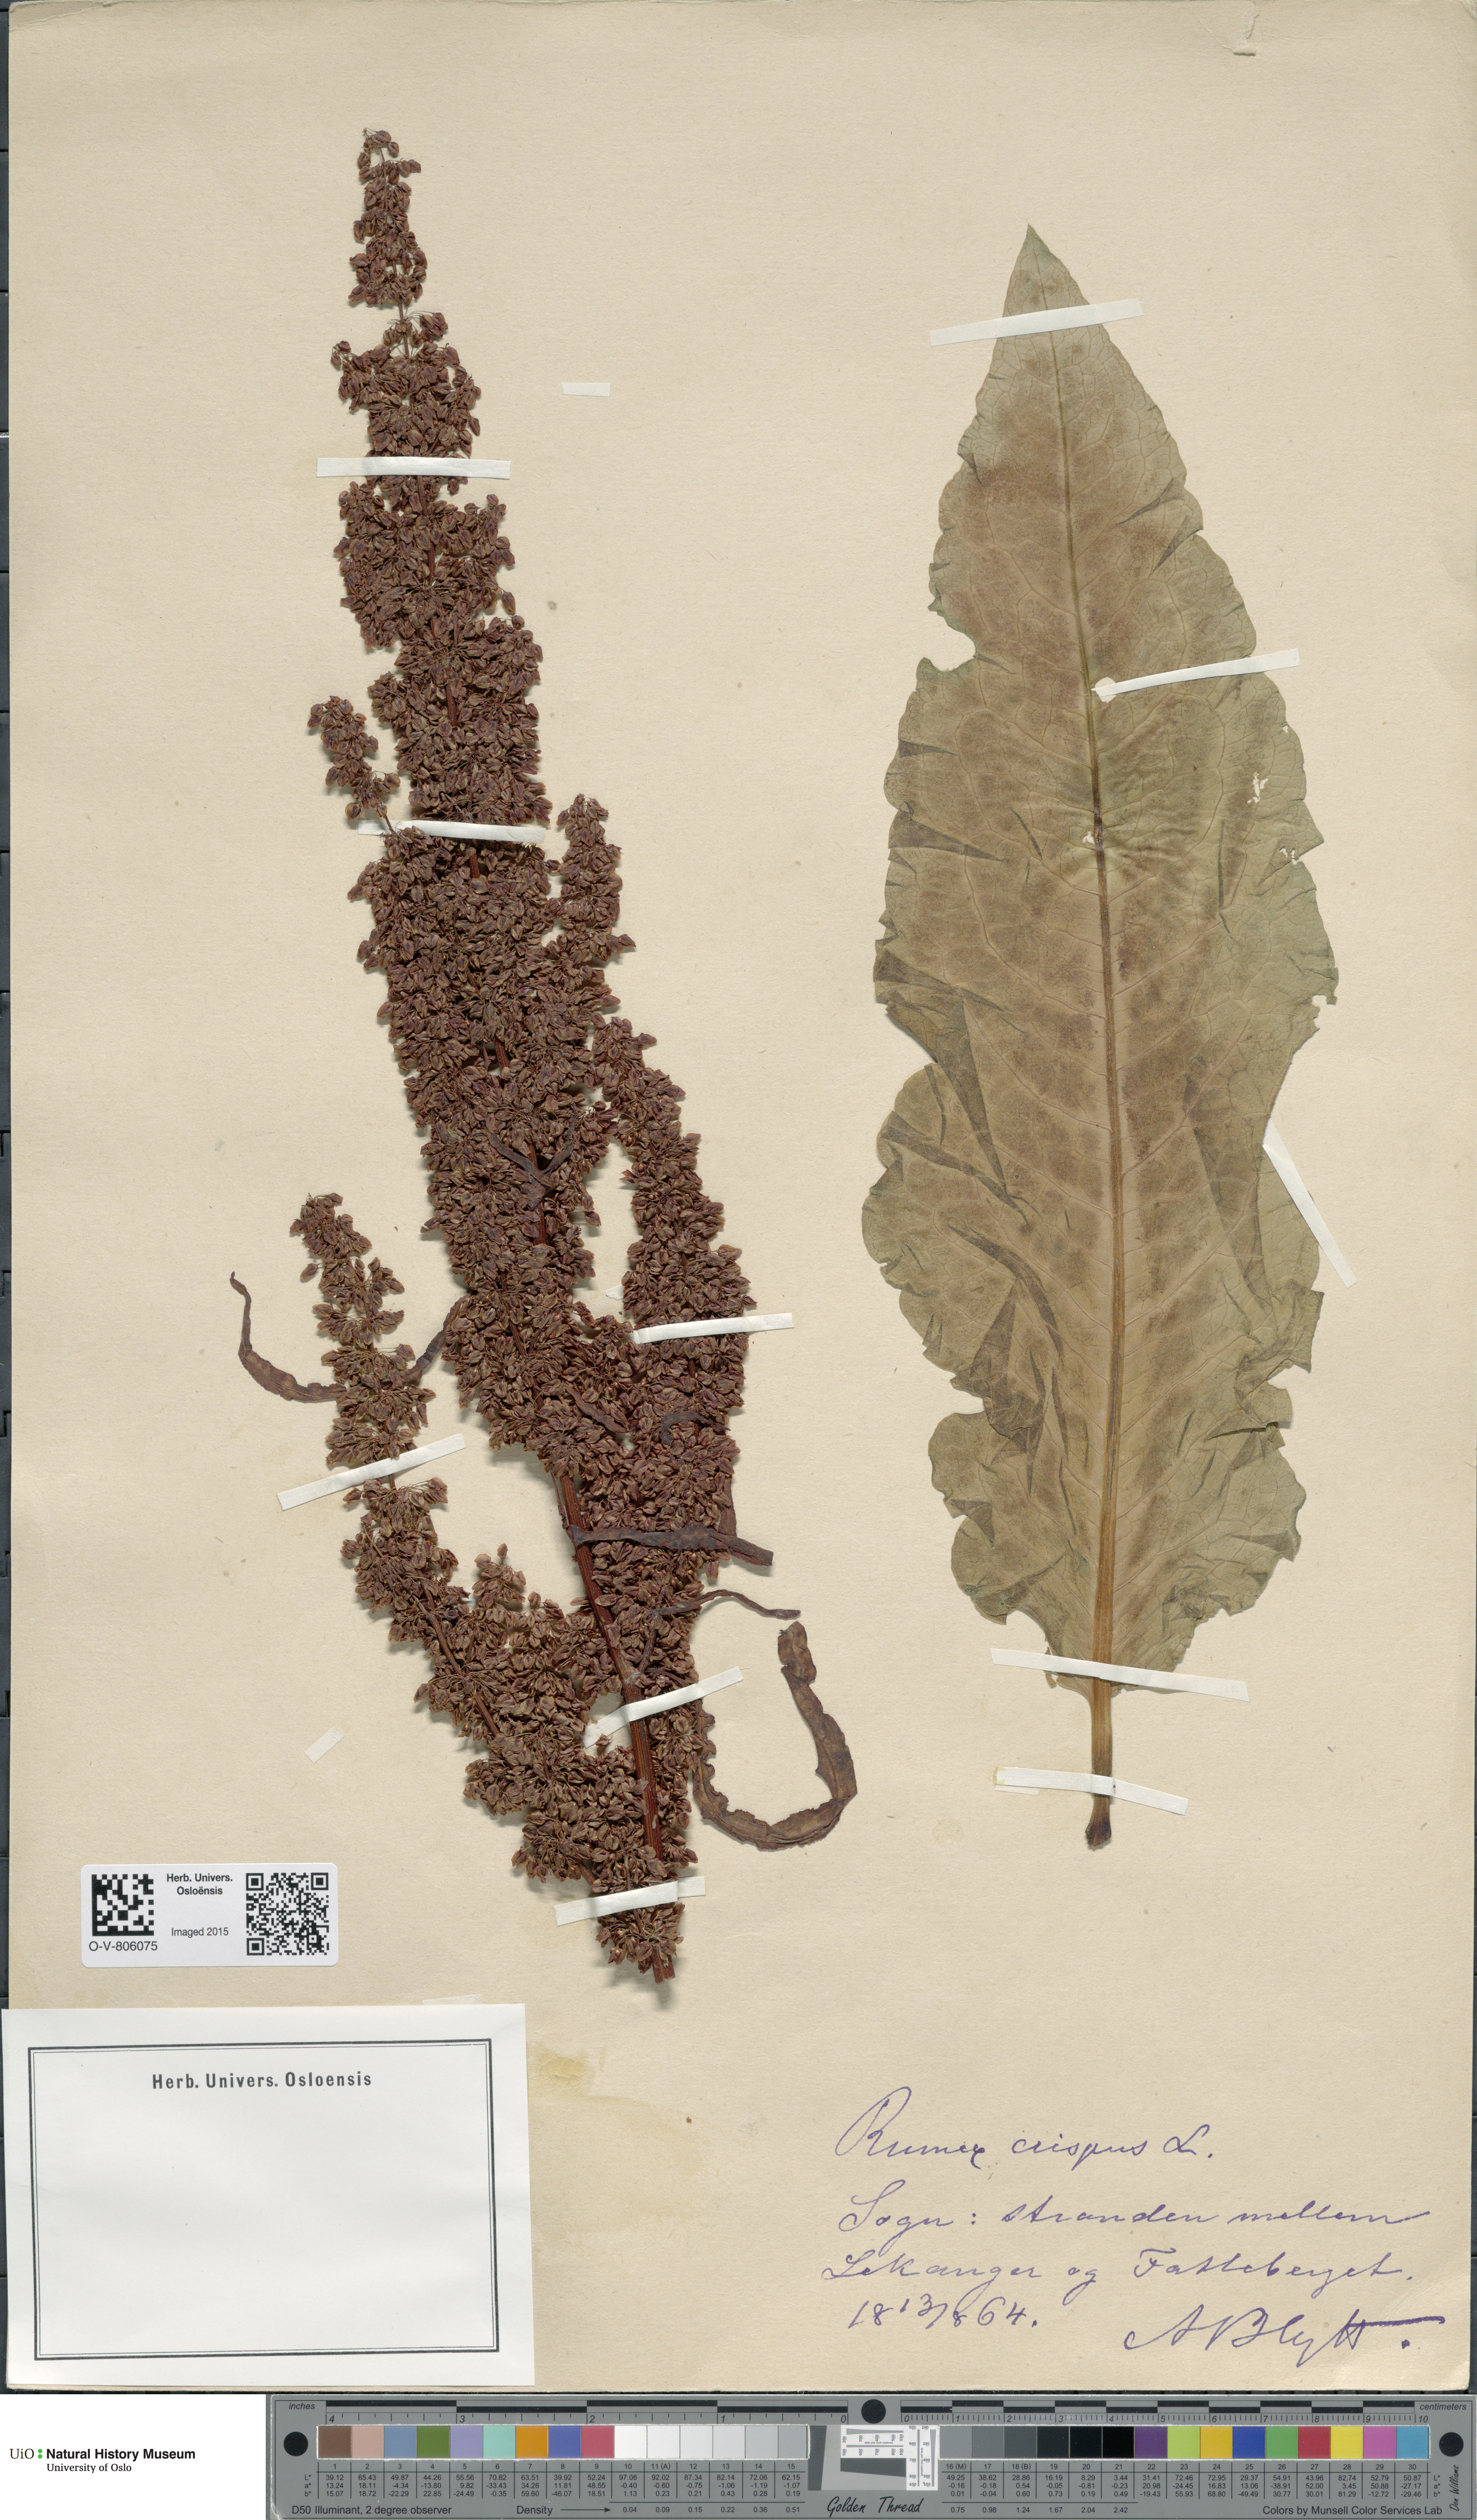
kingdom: Plantae
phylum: Tracheophyta
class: Magnoliopsida
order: Caryophyllales
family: Polygonaceae
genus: Rumex
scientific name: Rumex crispus
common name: Curled dock
